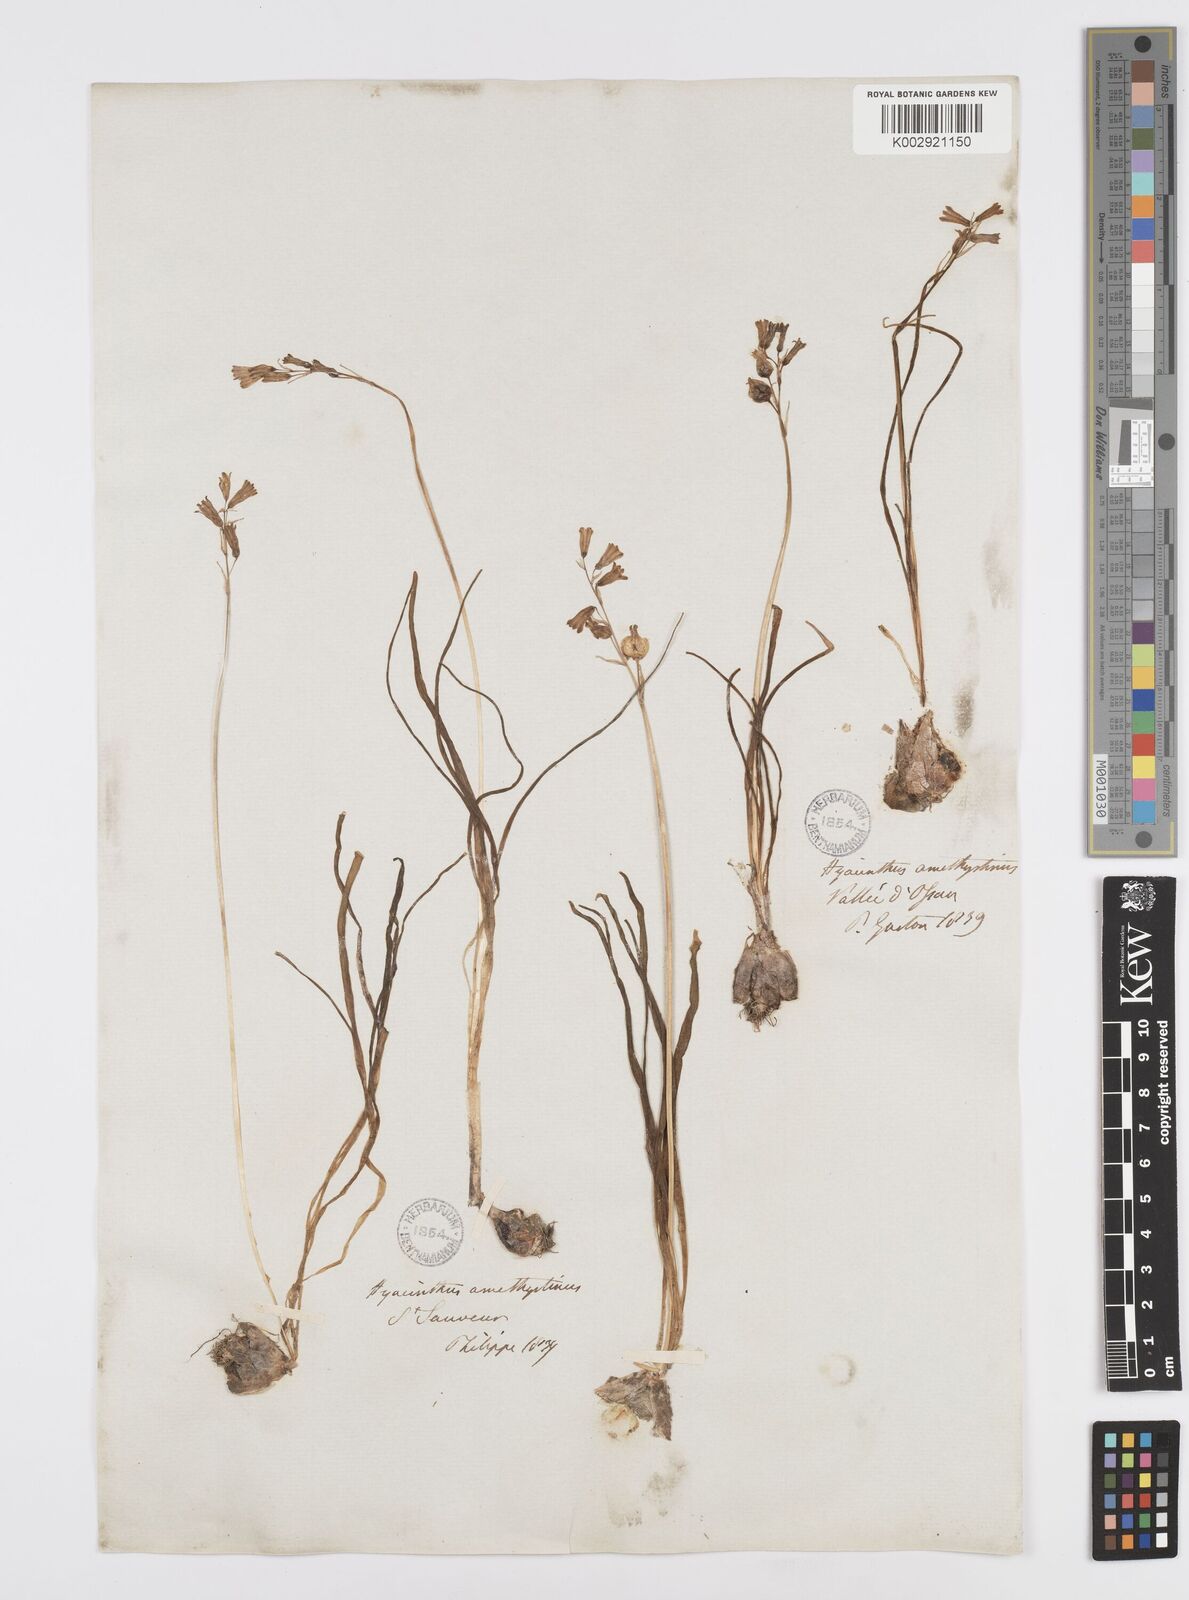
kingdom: Plantae
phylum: Tracheophyta
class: Liliopsida
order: Asparagales
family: Asparagaceae
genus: Brimeura
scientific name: Brimeura amethystina
